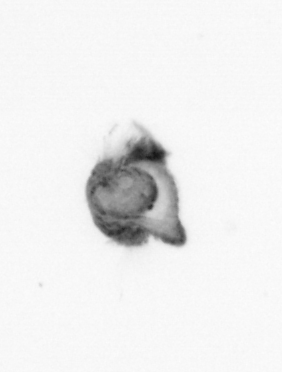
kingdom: Animalia
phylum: Annelida
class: Polychaeta
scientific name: Polychaeta
